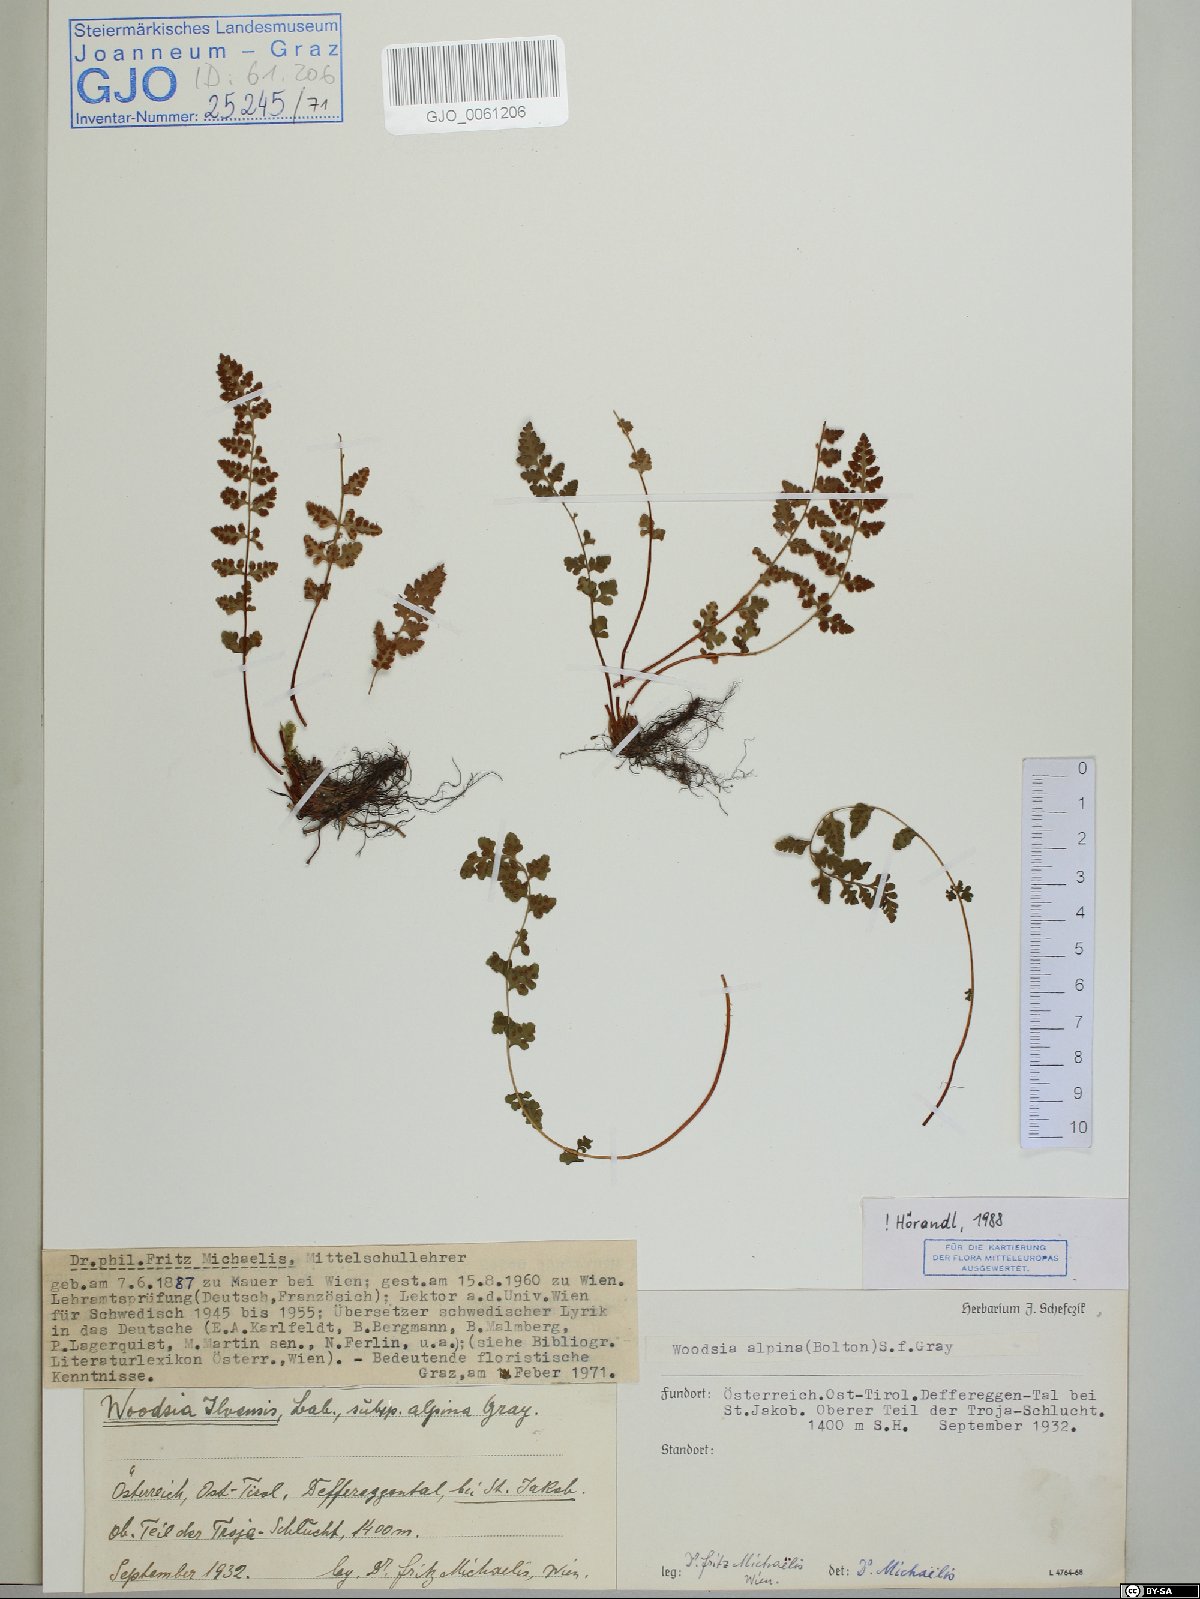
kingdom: Plantae
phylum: Tracheophyta
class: Polypodiopsida
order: Polypodiales
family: Woodsiaceae
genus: Woodsia
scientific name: Woodsia alpina
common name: Alpine woodsia
